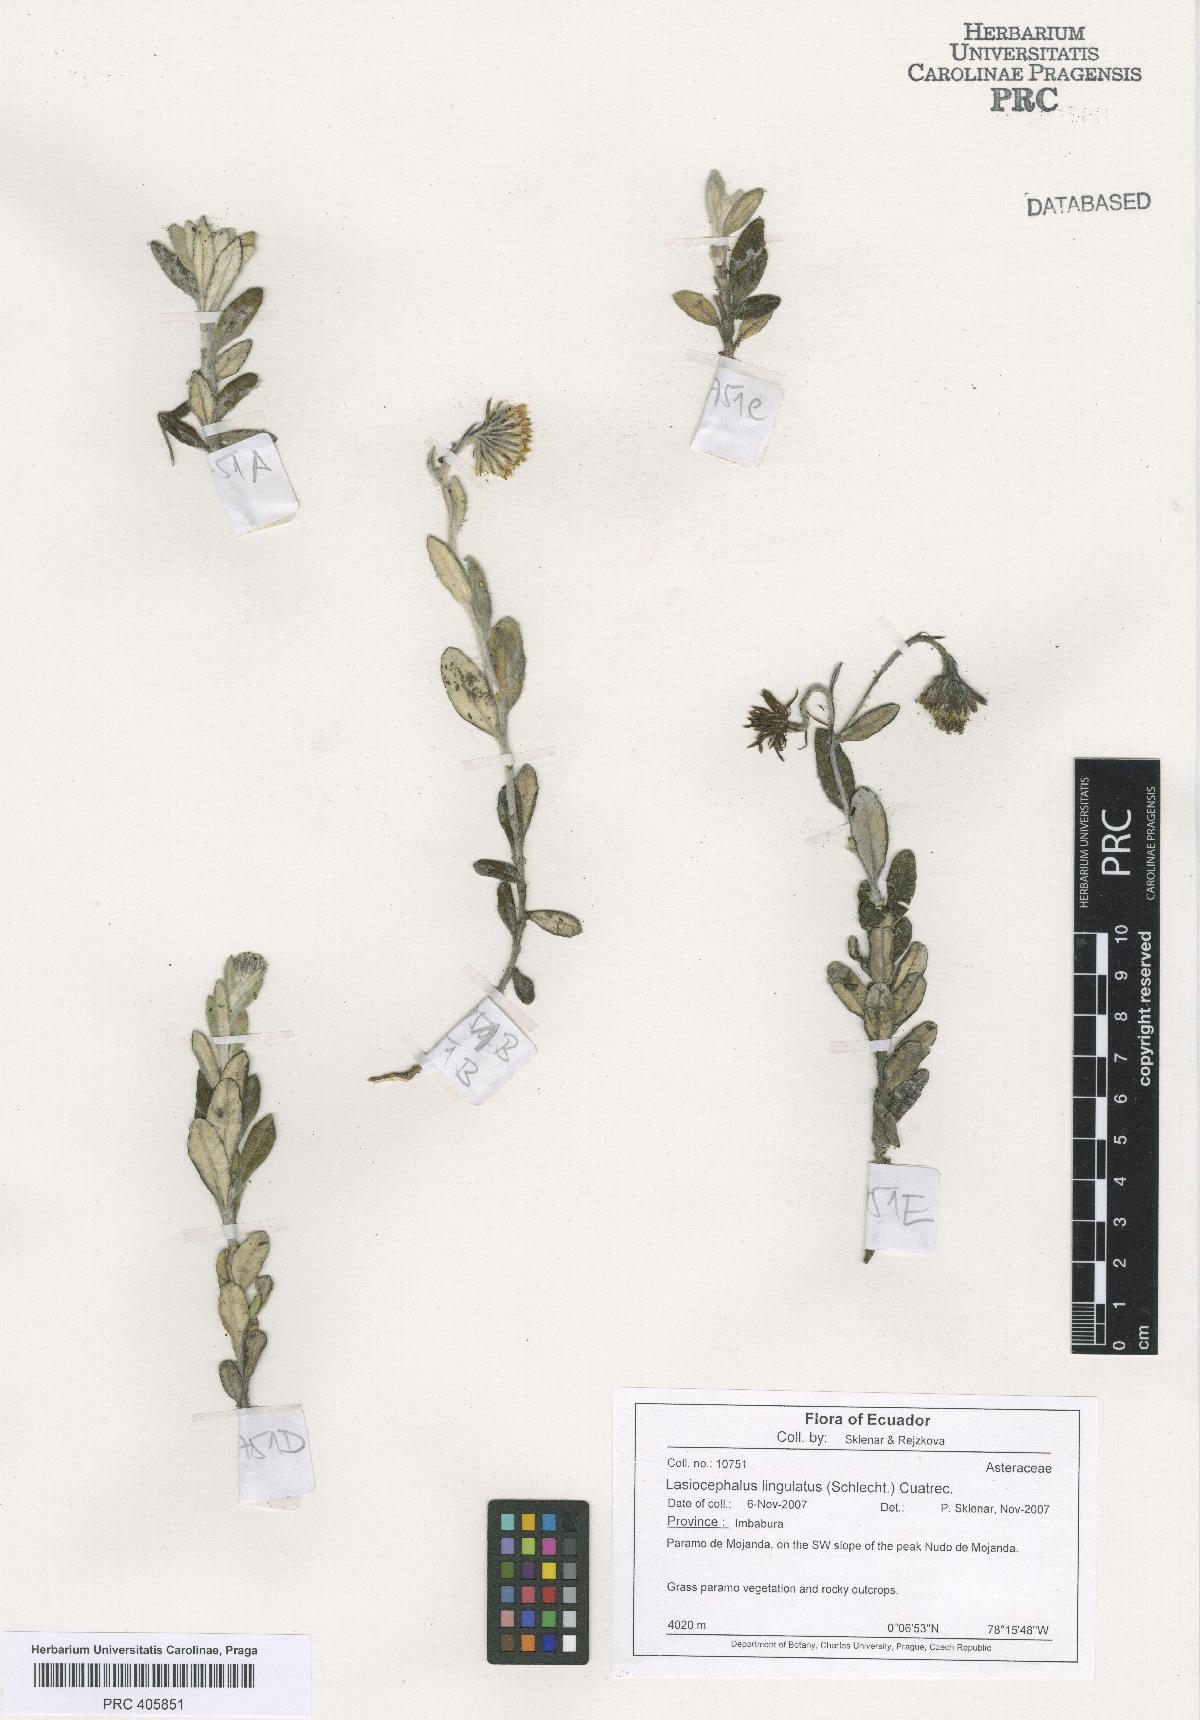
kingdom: Plantae
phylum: Tracheophyta
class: Magnoliopsida
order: Asterales
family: Asteraceae
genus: Lasiocephalus
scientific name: Lasiocephalus lingulatus
